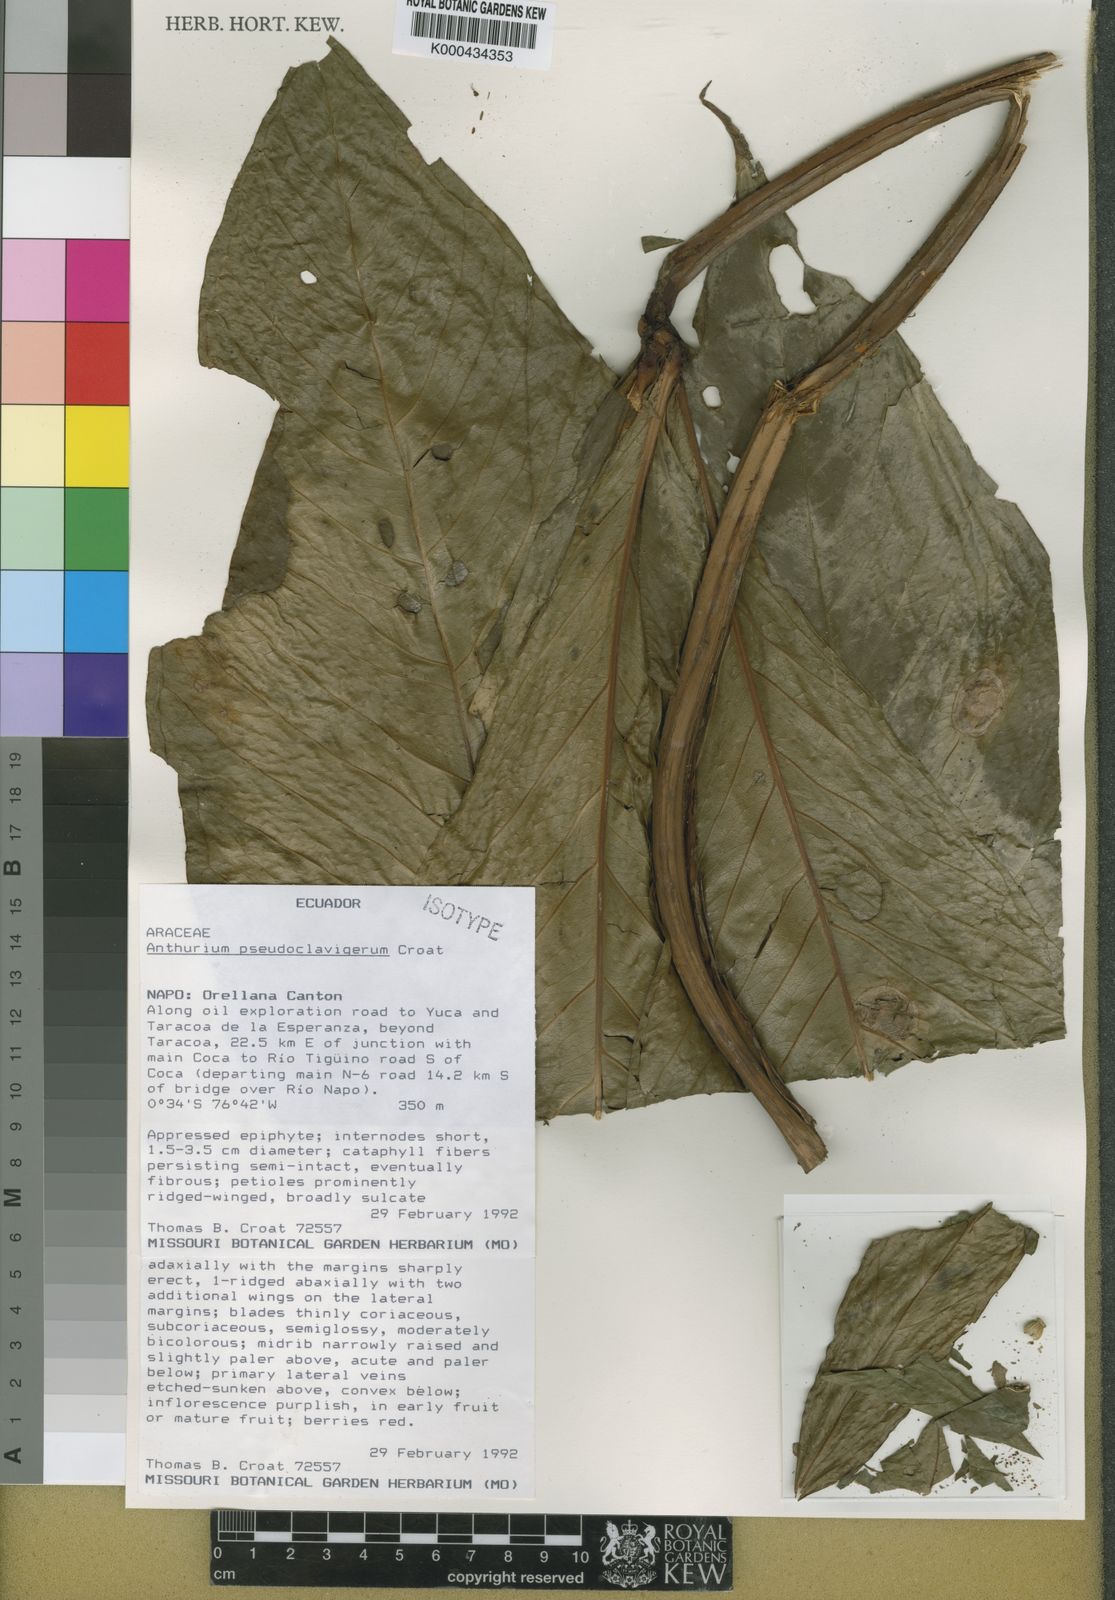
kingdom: Plantae
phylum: Tracheophyta
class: Liliopsida
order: Alismatales
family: Araceae
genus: Anthurium
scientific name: Anthurium
